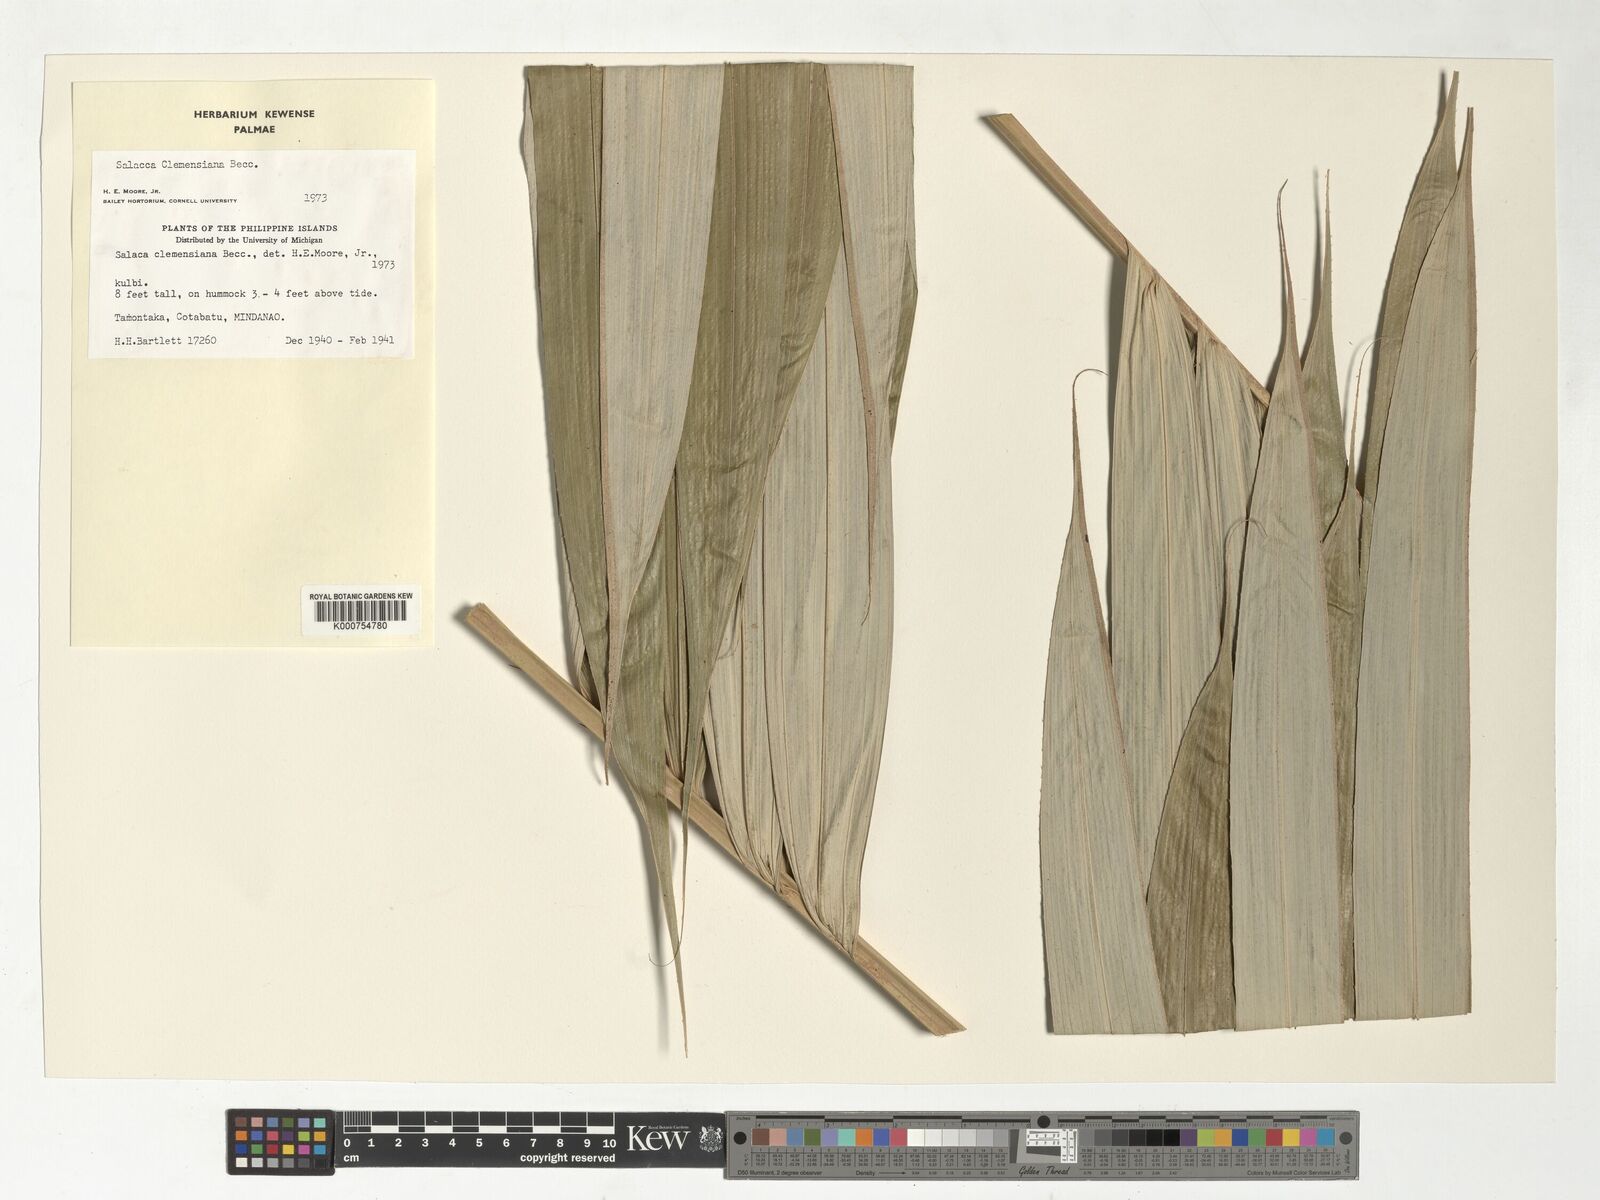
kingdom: Plantae
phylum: Tracheophyta
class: Liliopsida
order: Arecales
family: Arecaceae
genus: Salacca
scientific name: Salacca clemensiana
